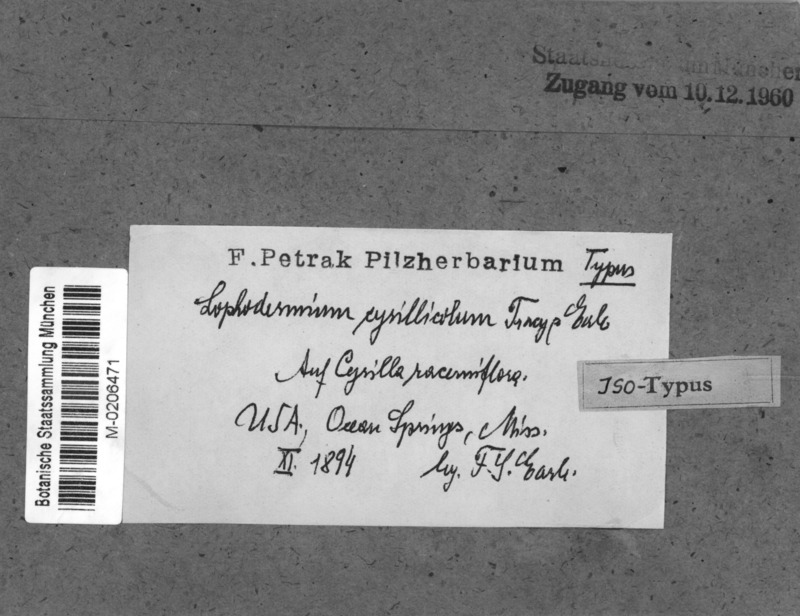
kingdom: Fungi
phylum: Ascomycota
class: Leotiomycetes
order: Rhytismatales
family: Rhytismataceae
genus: Lophodermium
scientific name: Lophodermium
